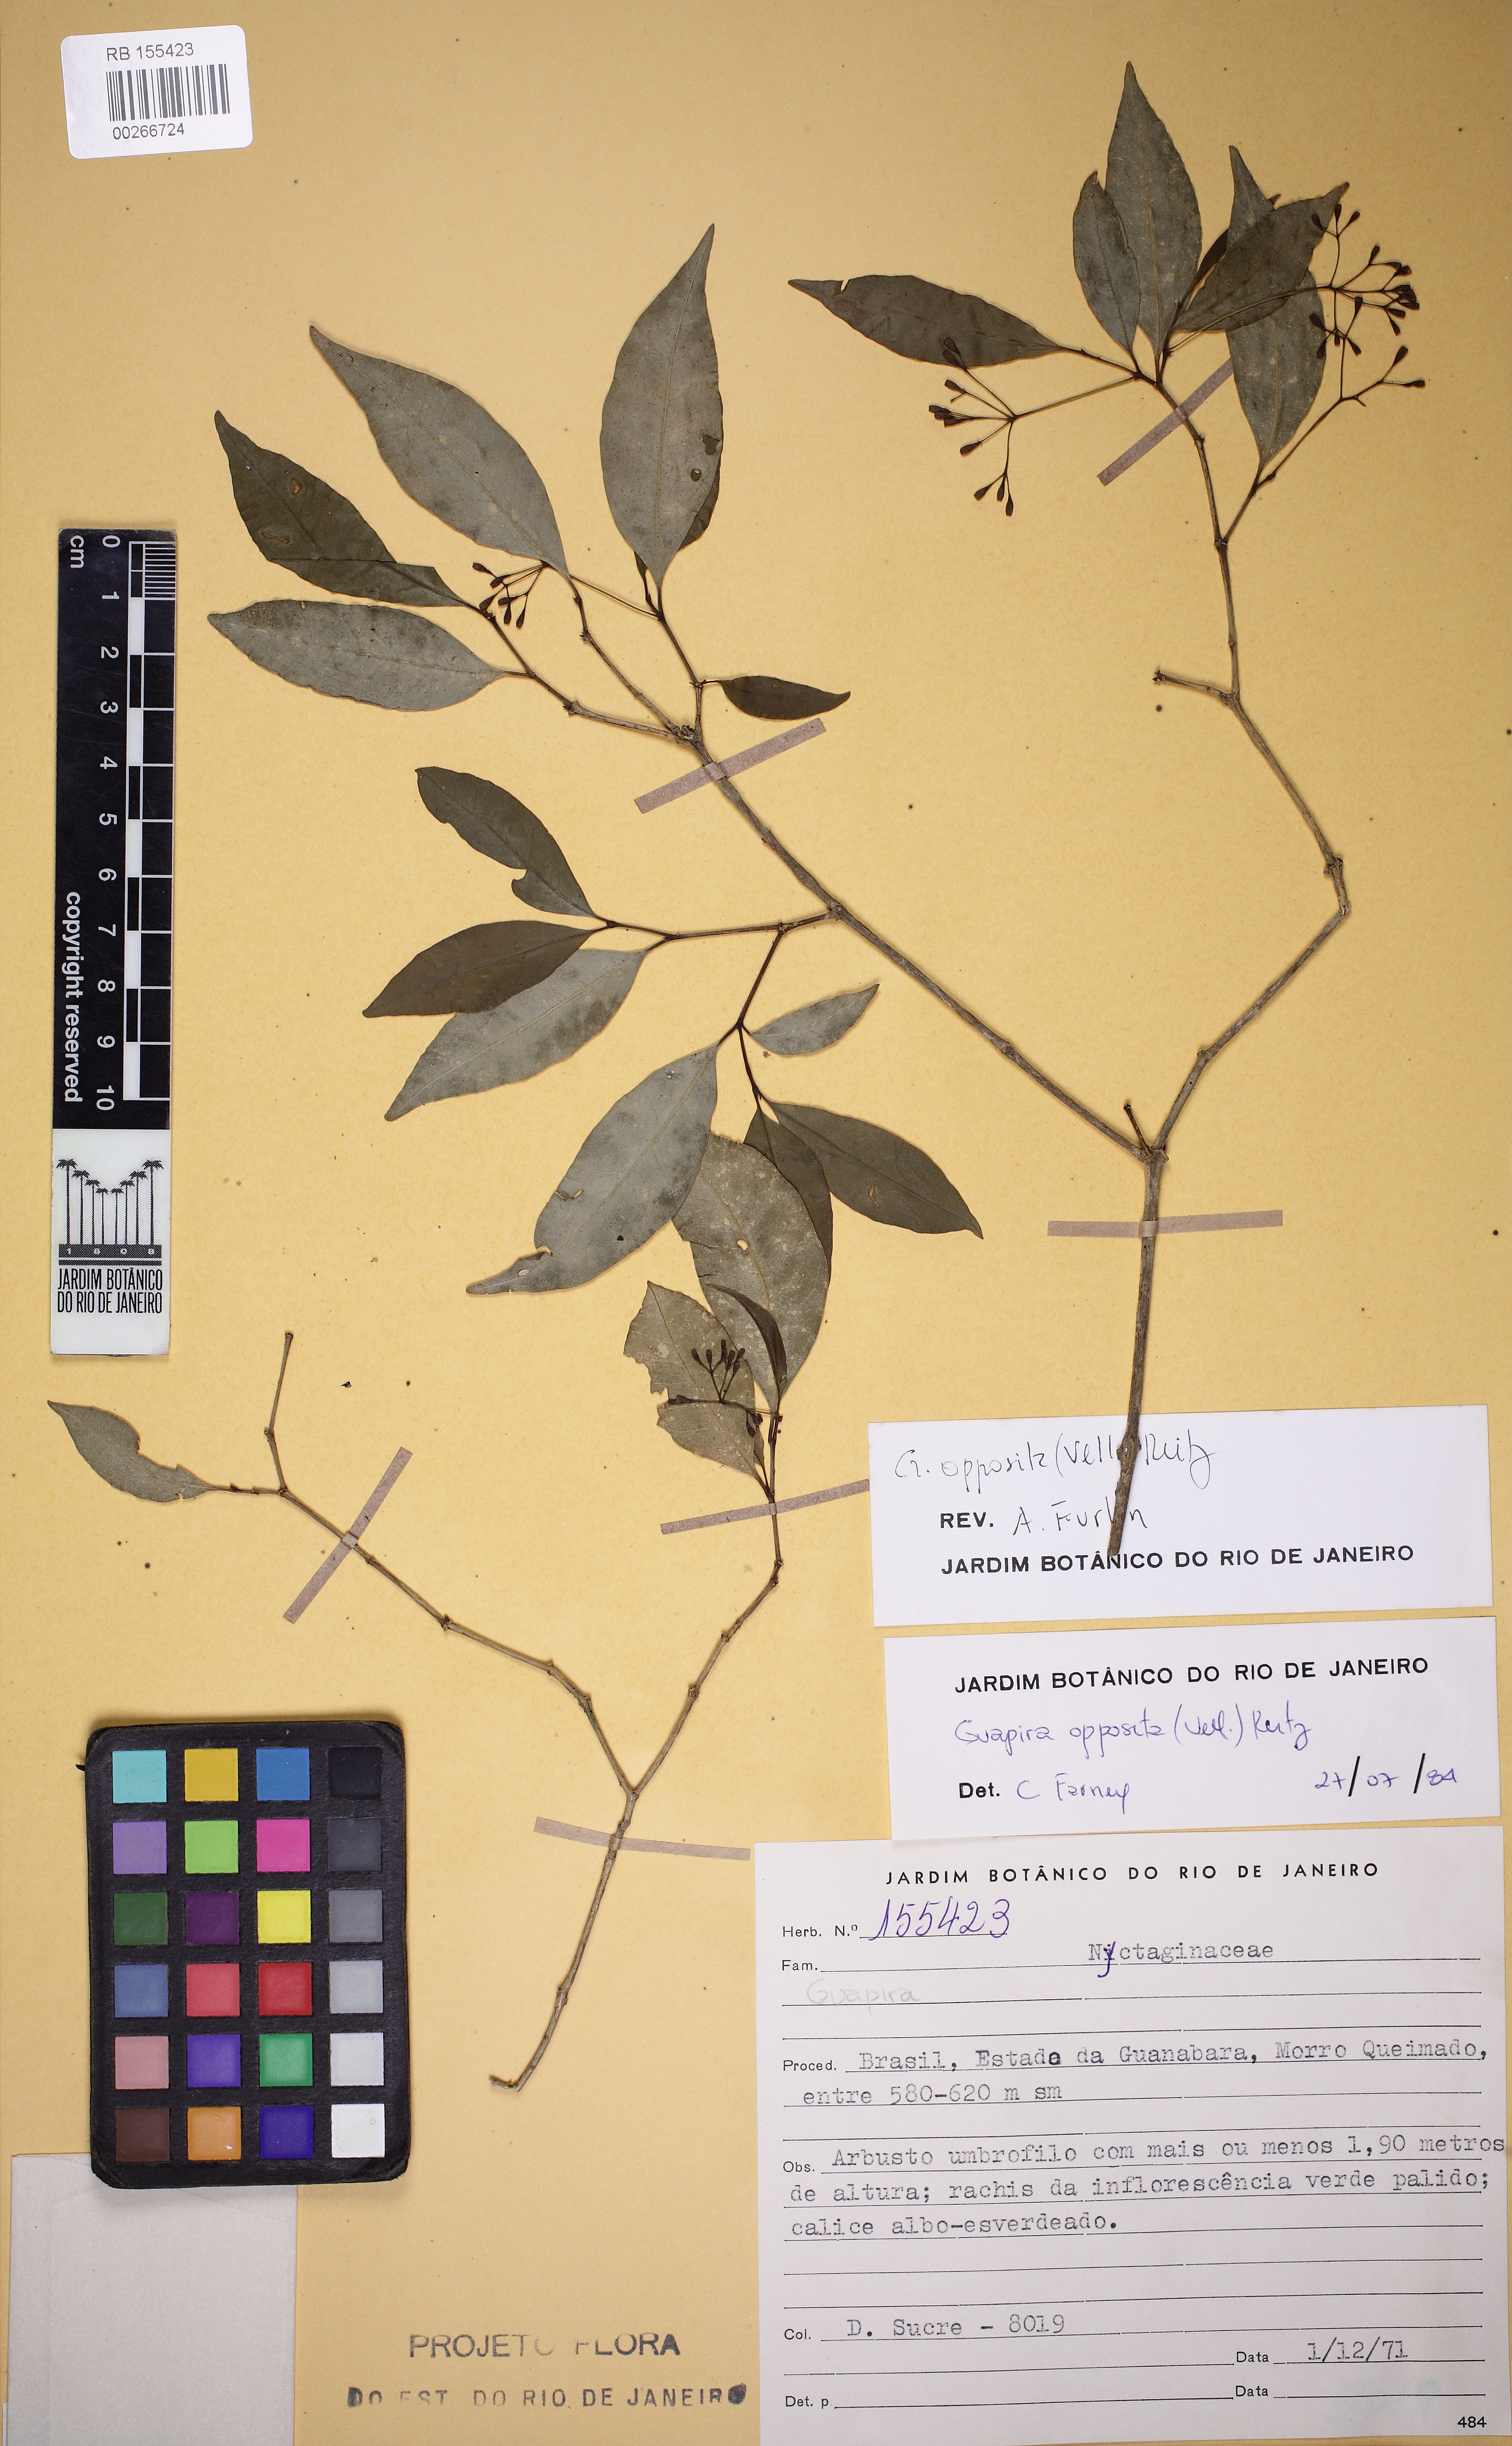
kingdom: Plantae
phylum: Tracheophyta
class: Magnoliopsida
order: Caryophyllales
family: Nyctaginaceae
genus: Guapira
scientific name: Guapira opposita
